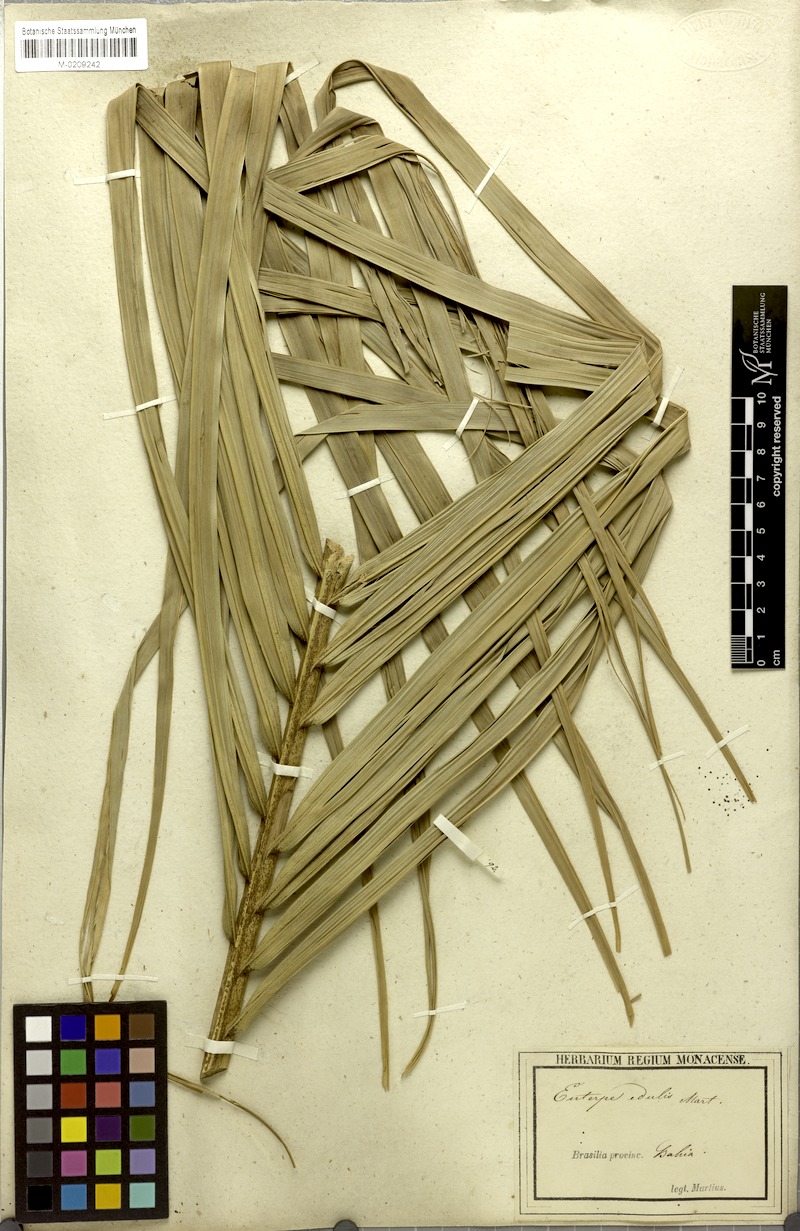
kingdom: Plantae
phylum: Tracheophyta
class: Liliopsida
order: Arecales
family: Arecaceae
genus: Euterpe
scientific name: Euterpe edulis
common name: Assai palm
